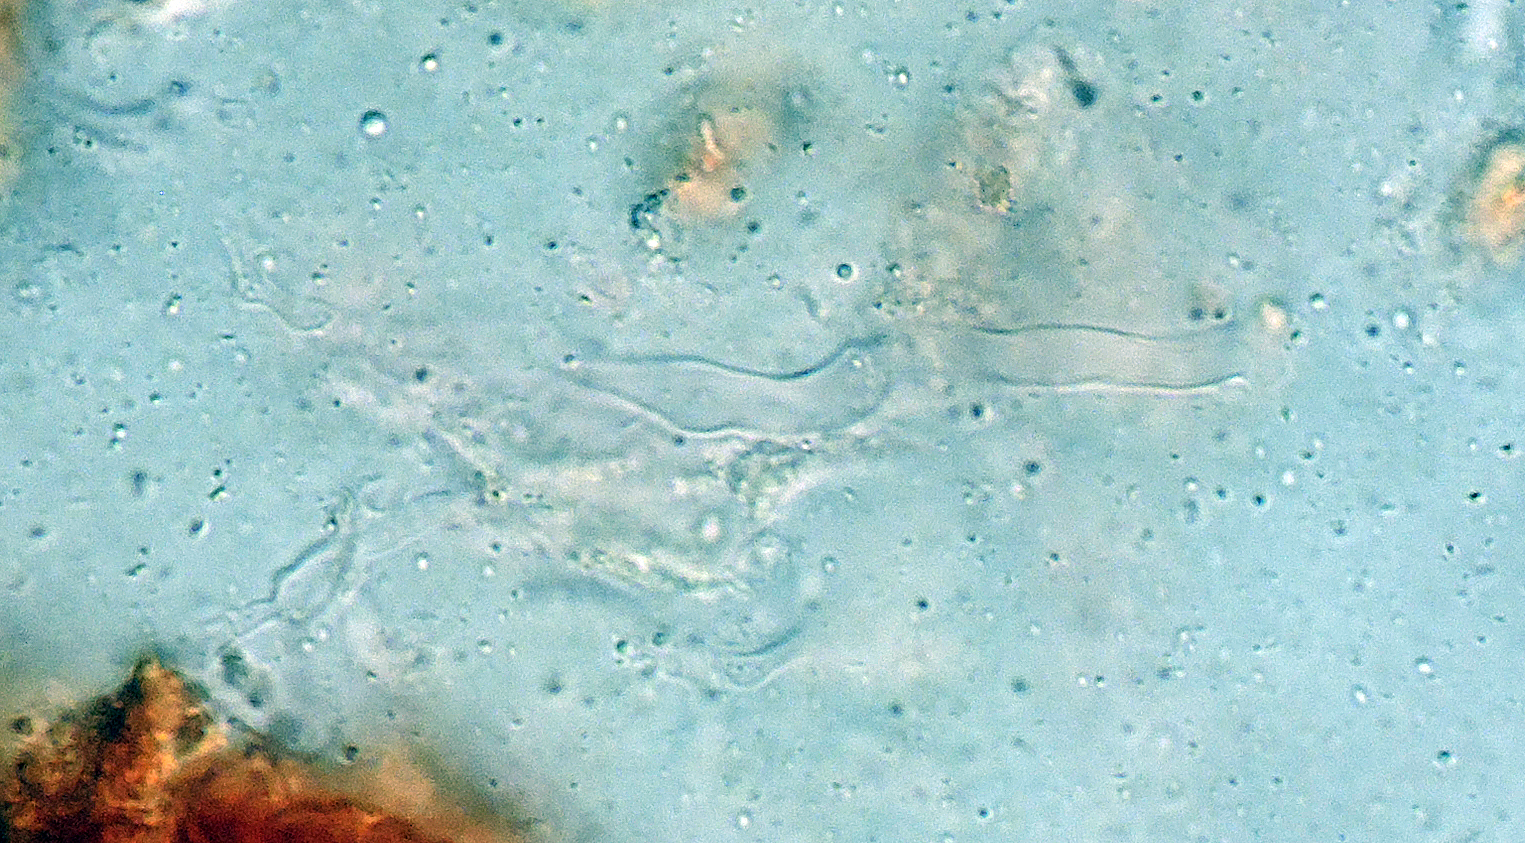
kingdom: Fungi
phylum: Basidiomycota
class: Agaricomycetes
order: Corticiales
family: Vuilleminiaceae
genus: Vuilleminia
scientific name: Vuilleminia cystidiata
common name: tjørne-barksprænger
